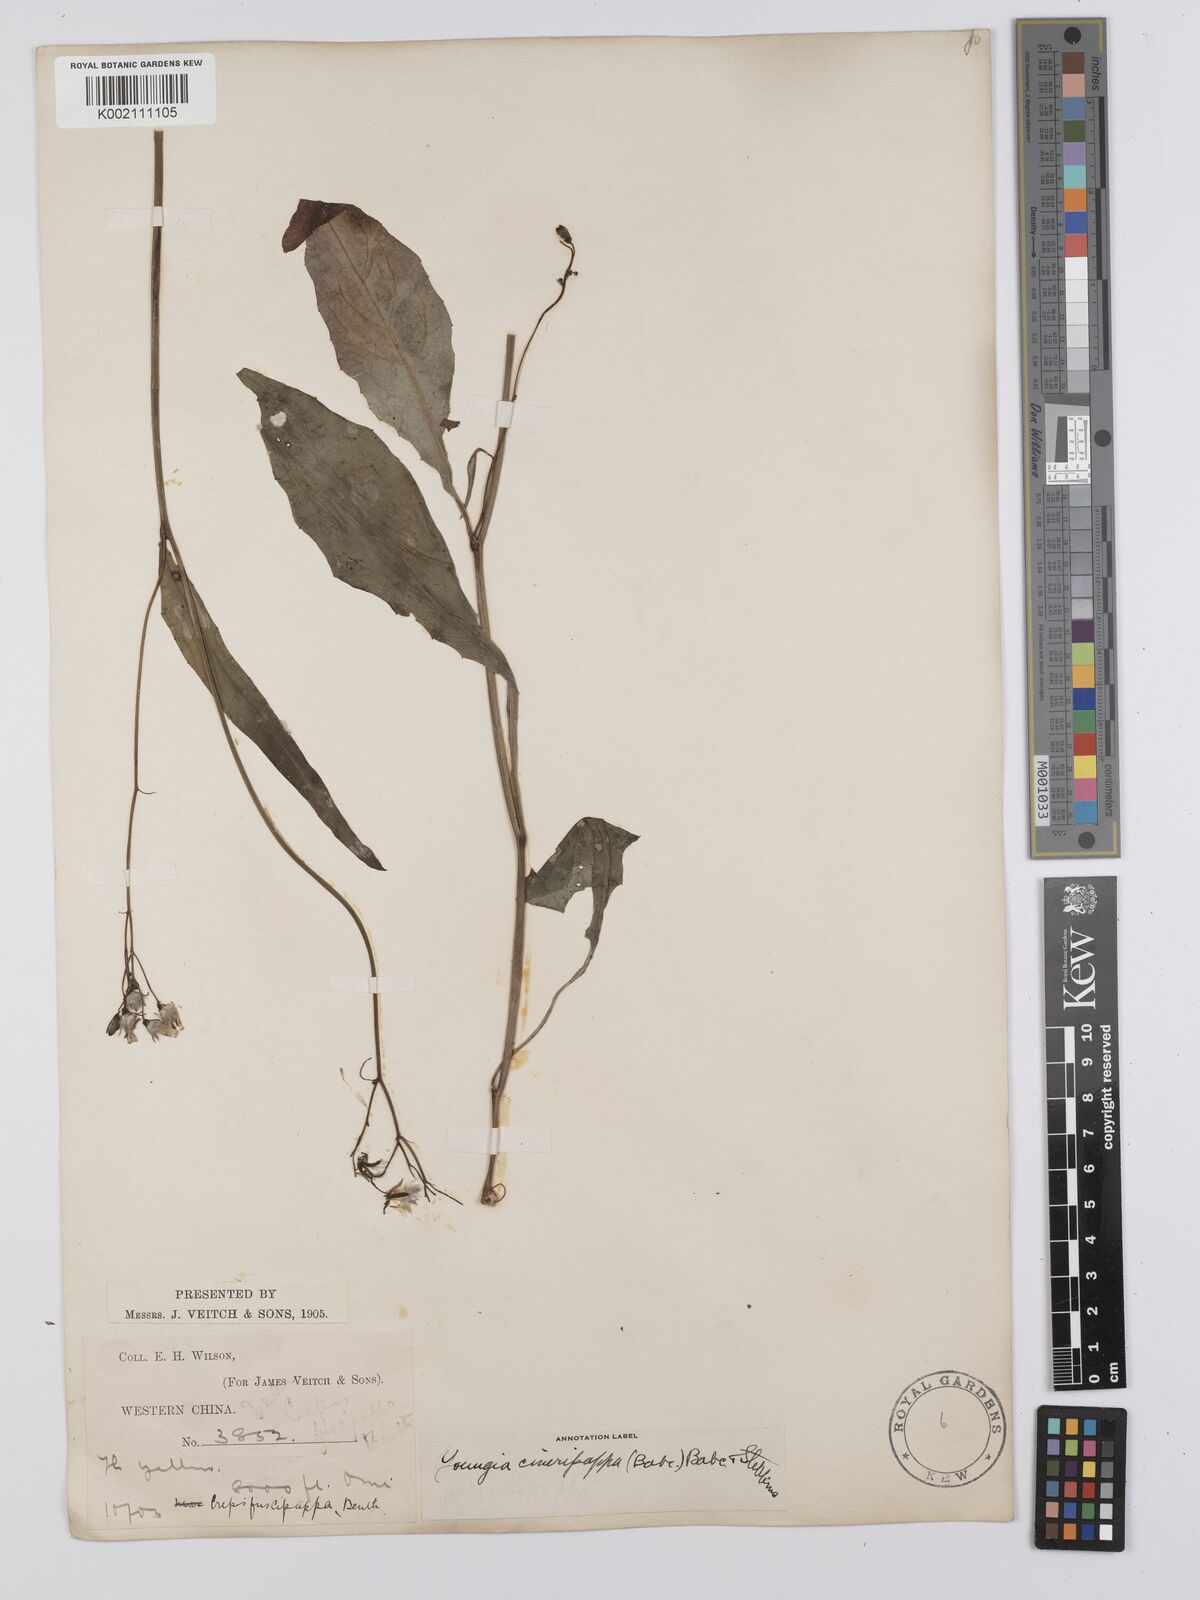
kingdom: Plantae
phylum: Tracheophyta
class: Magnoliopsida
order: Asterales
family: Asteraceae
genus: Youngia
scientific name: Youngia cineripappa
